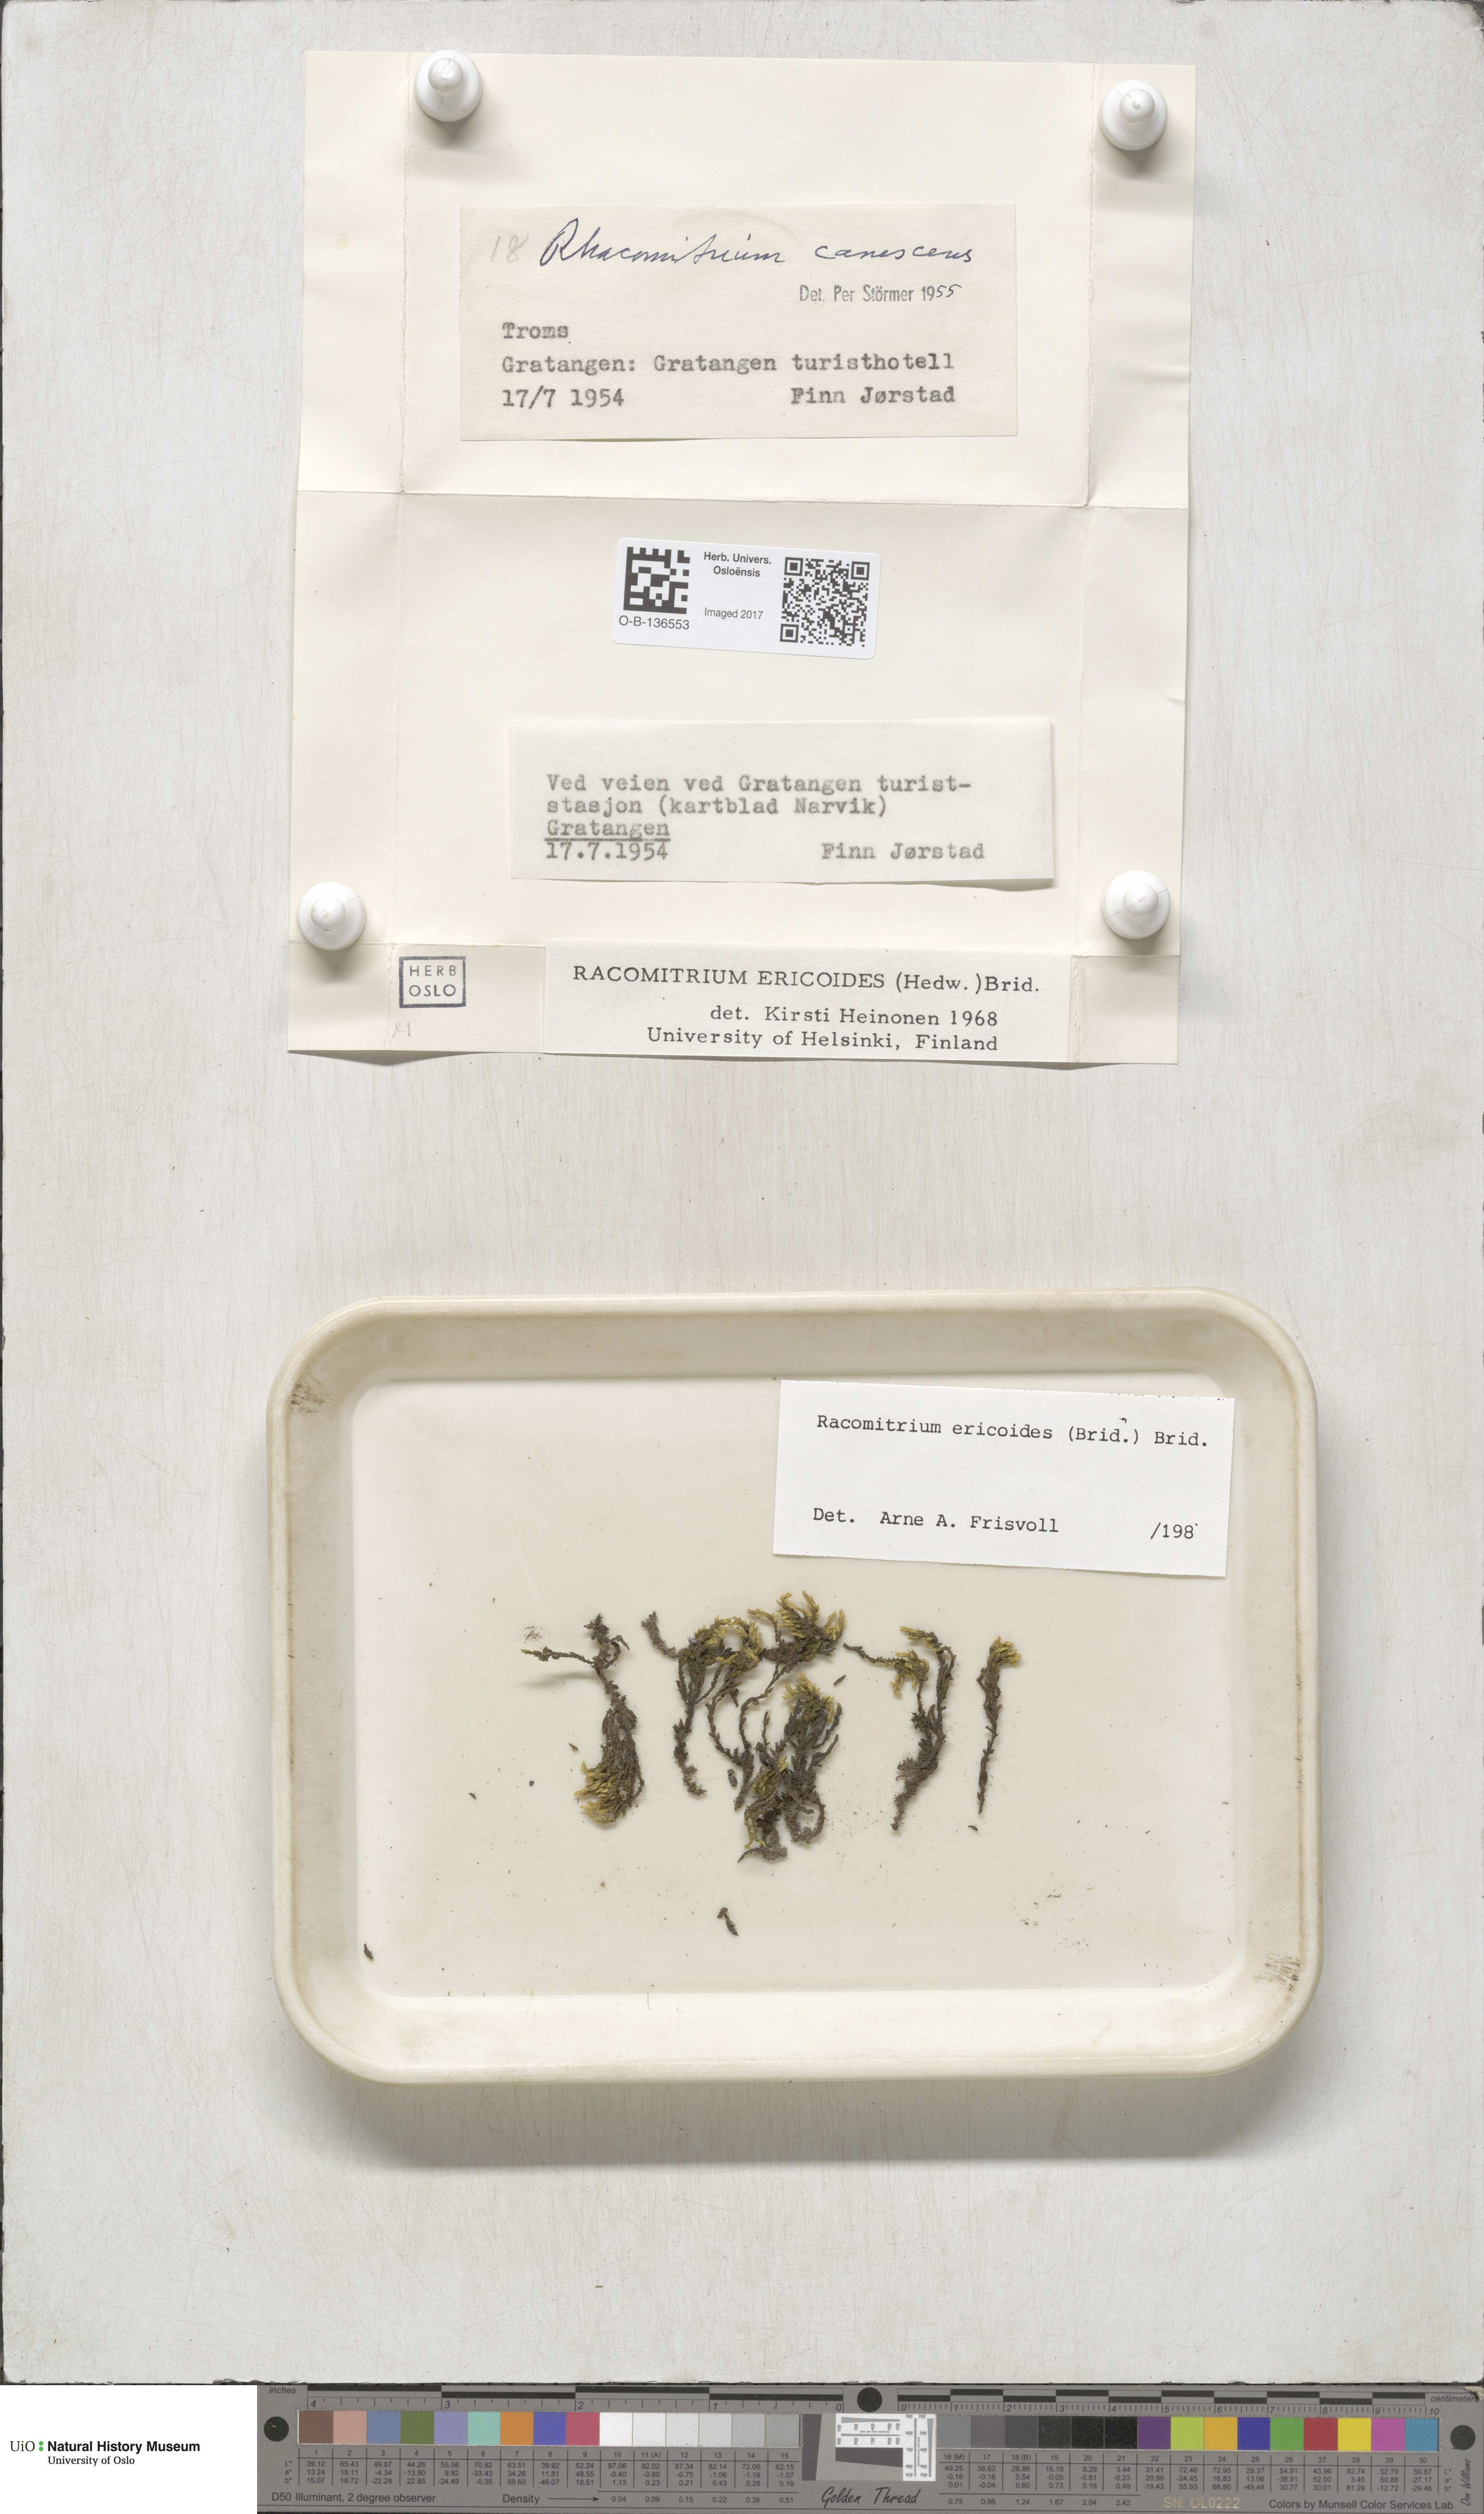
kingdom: Plantae
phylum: Bryophyta
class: Bryopsida
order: Grimmiales
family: Grimmiaceae
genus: Niphotrichum
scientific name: Niphotrichum ericoides
